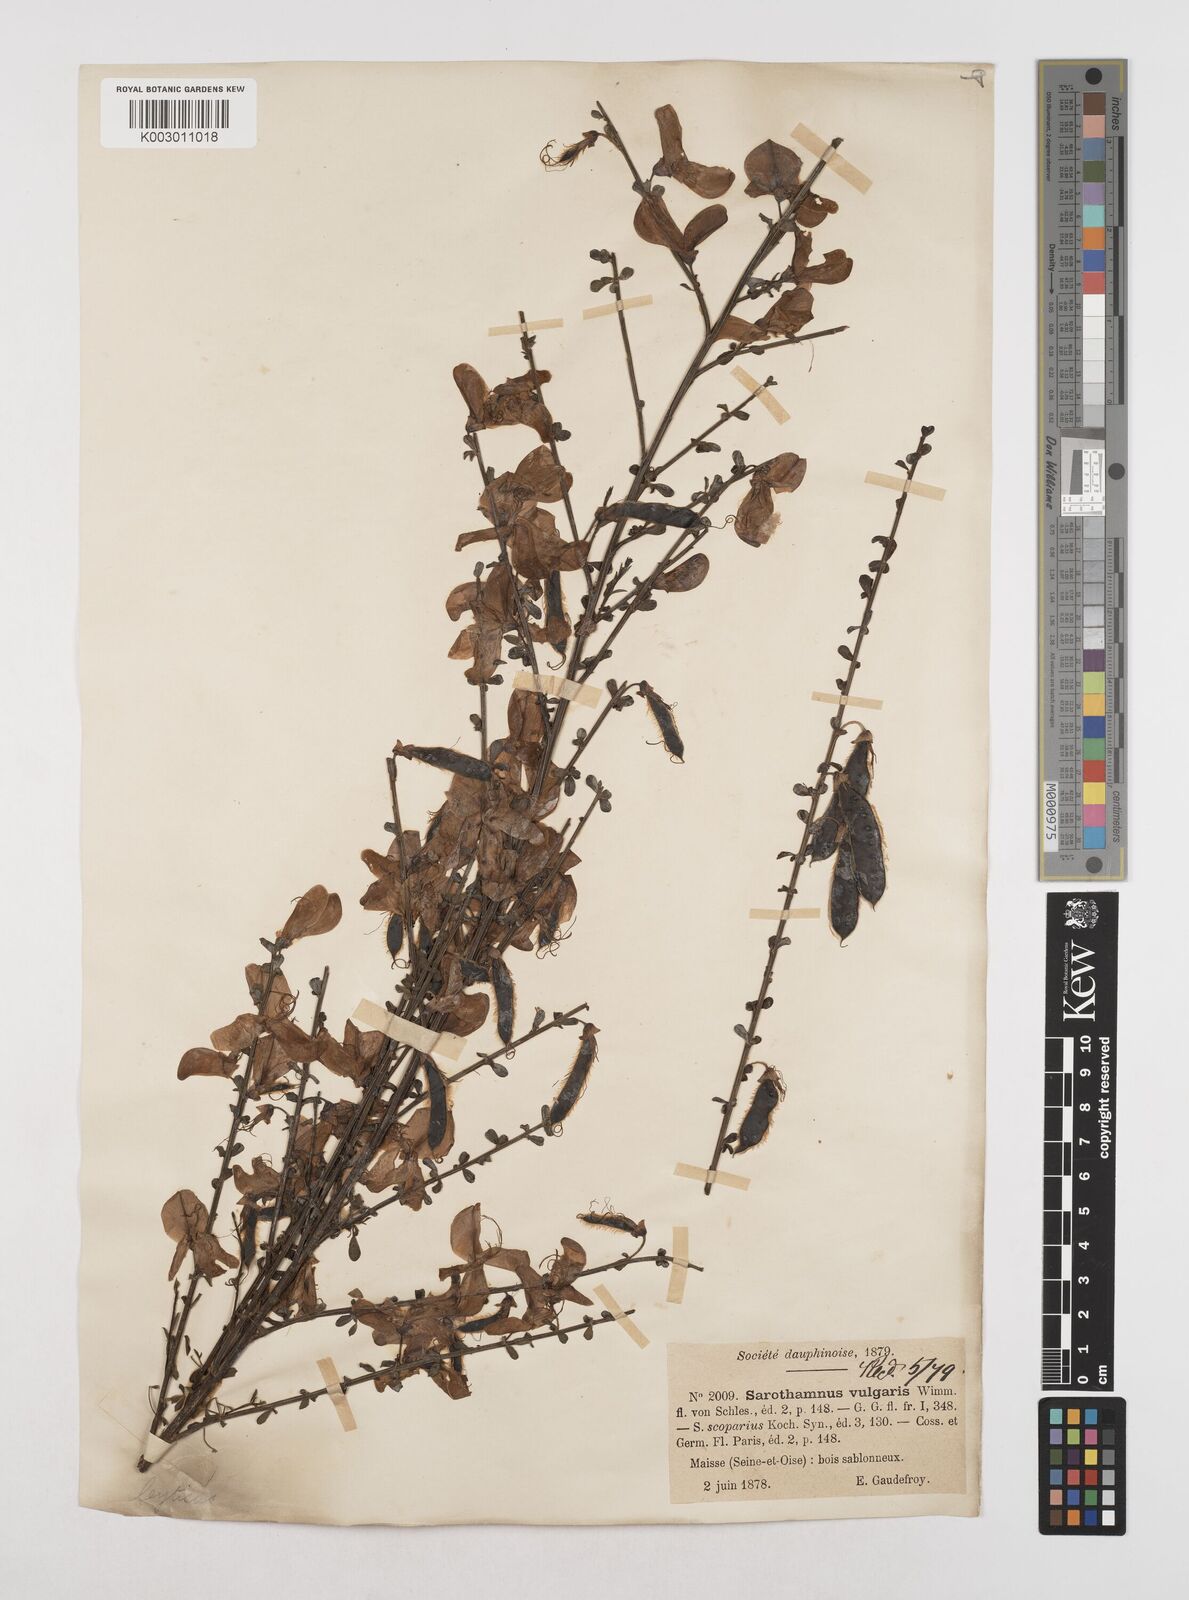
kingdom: Plantae
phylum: Tracheophyta
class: Magnoliopsida
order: Fabales
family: Fabaceae
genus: Cytisus
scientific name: Cytisus scoparius
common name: Scotch broom
